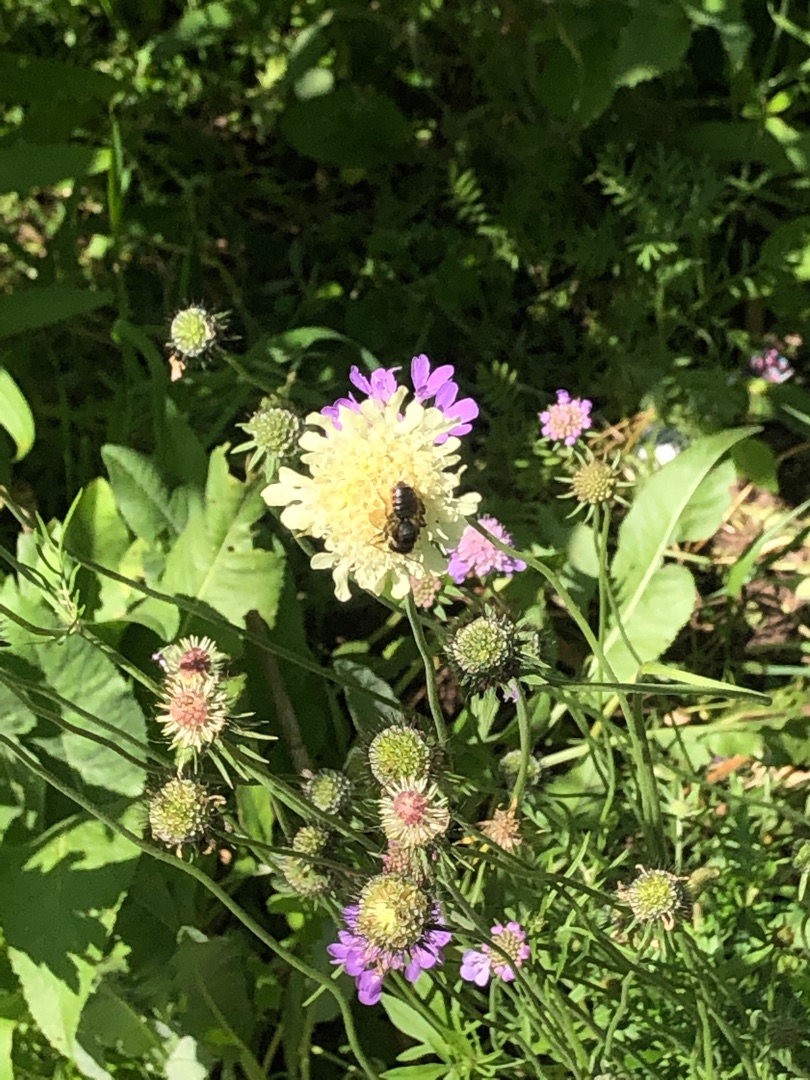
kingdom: Plantae
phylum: Tracheophyta
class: Magnoliopsida
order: Dipsacales
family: Caprifoliaceae
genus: Cephalaria
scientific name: Cephalaria gigantea
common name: Stor skælhoved
